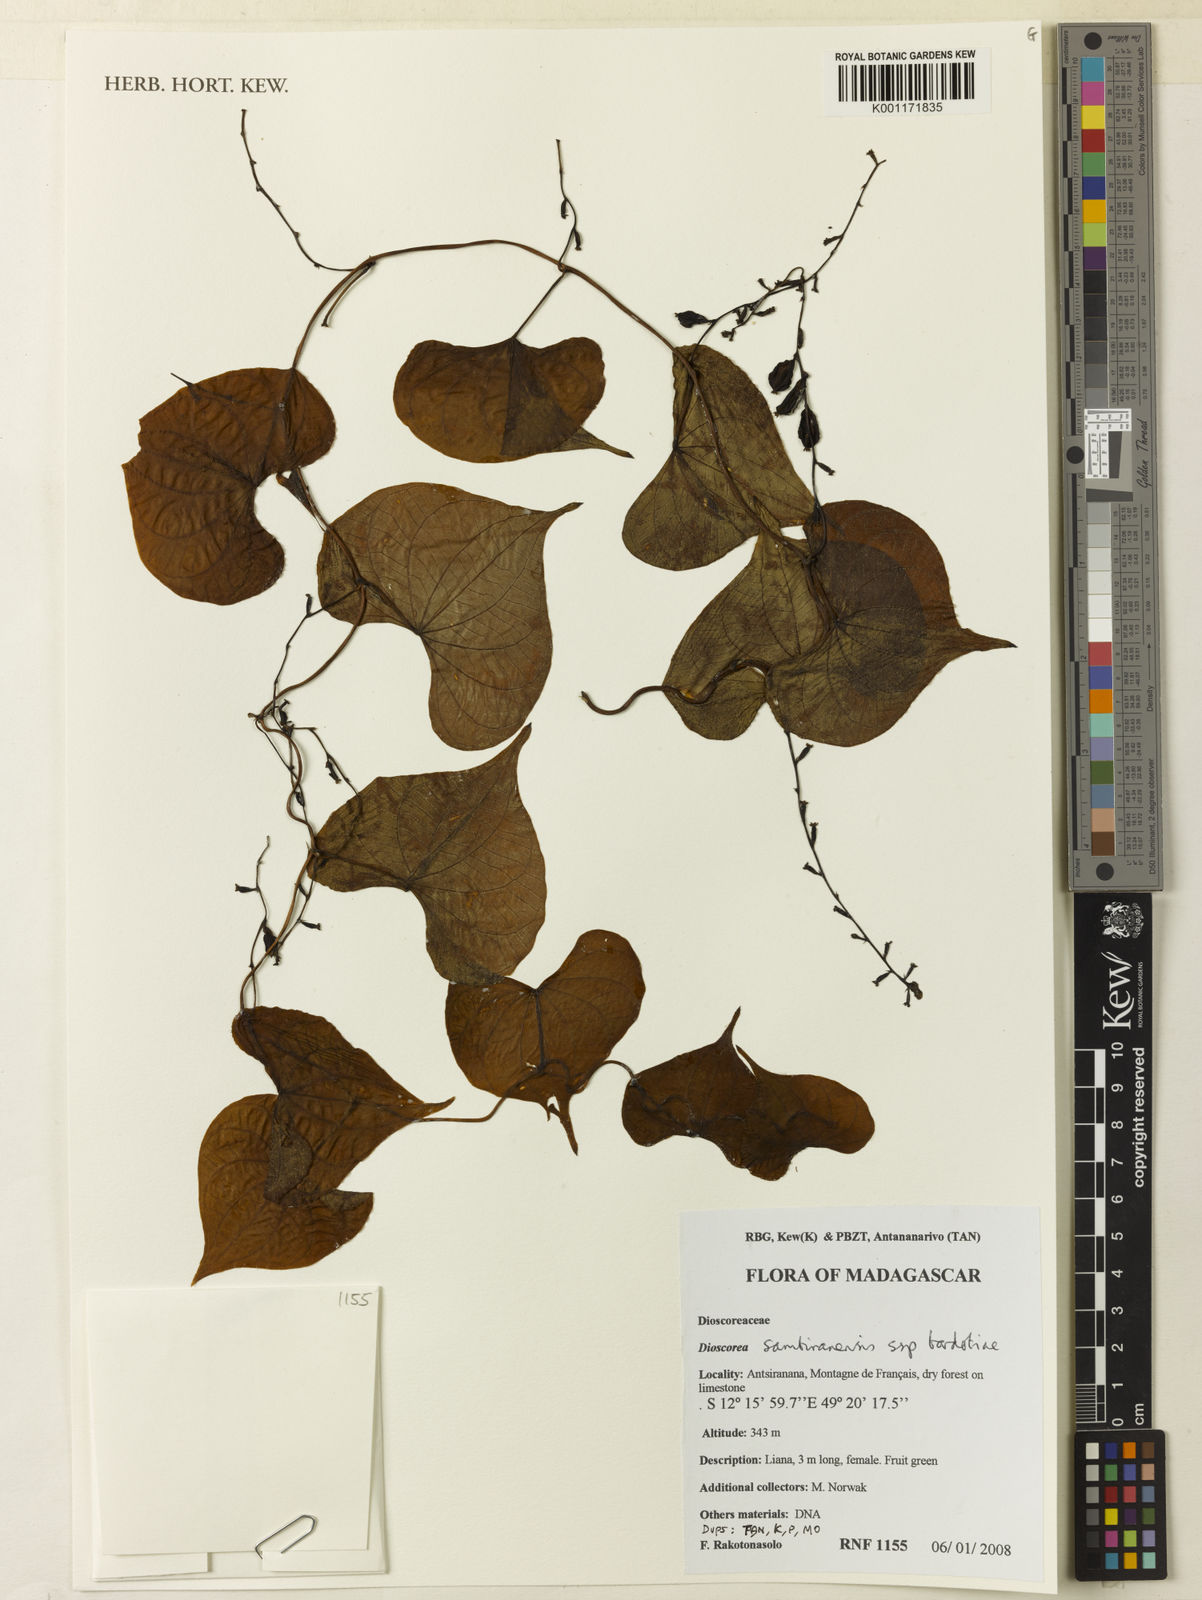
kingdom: Plantae
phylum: Tracheophyta
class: Liliopsida
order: Dioscoreales
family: Dioscoreaceae
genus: Dioscorea
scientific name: Dioscorea sambiranensis
